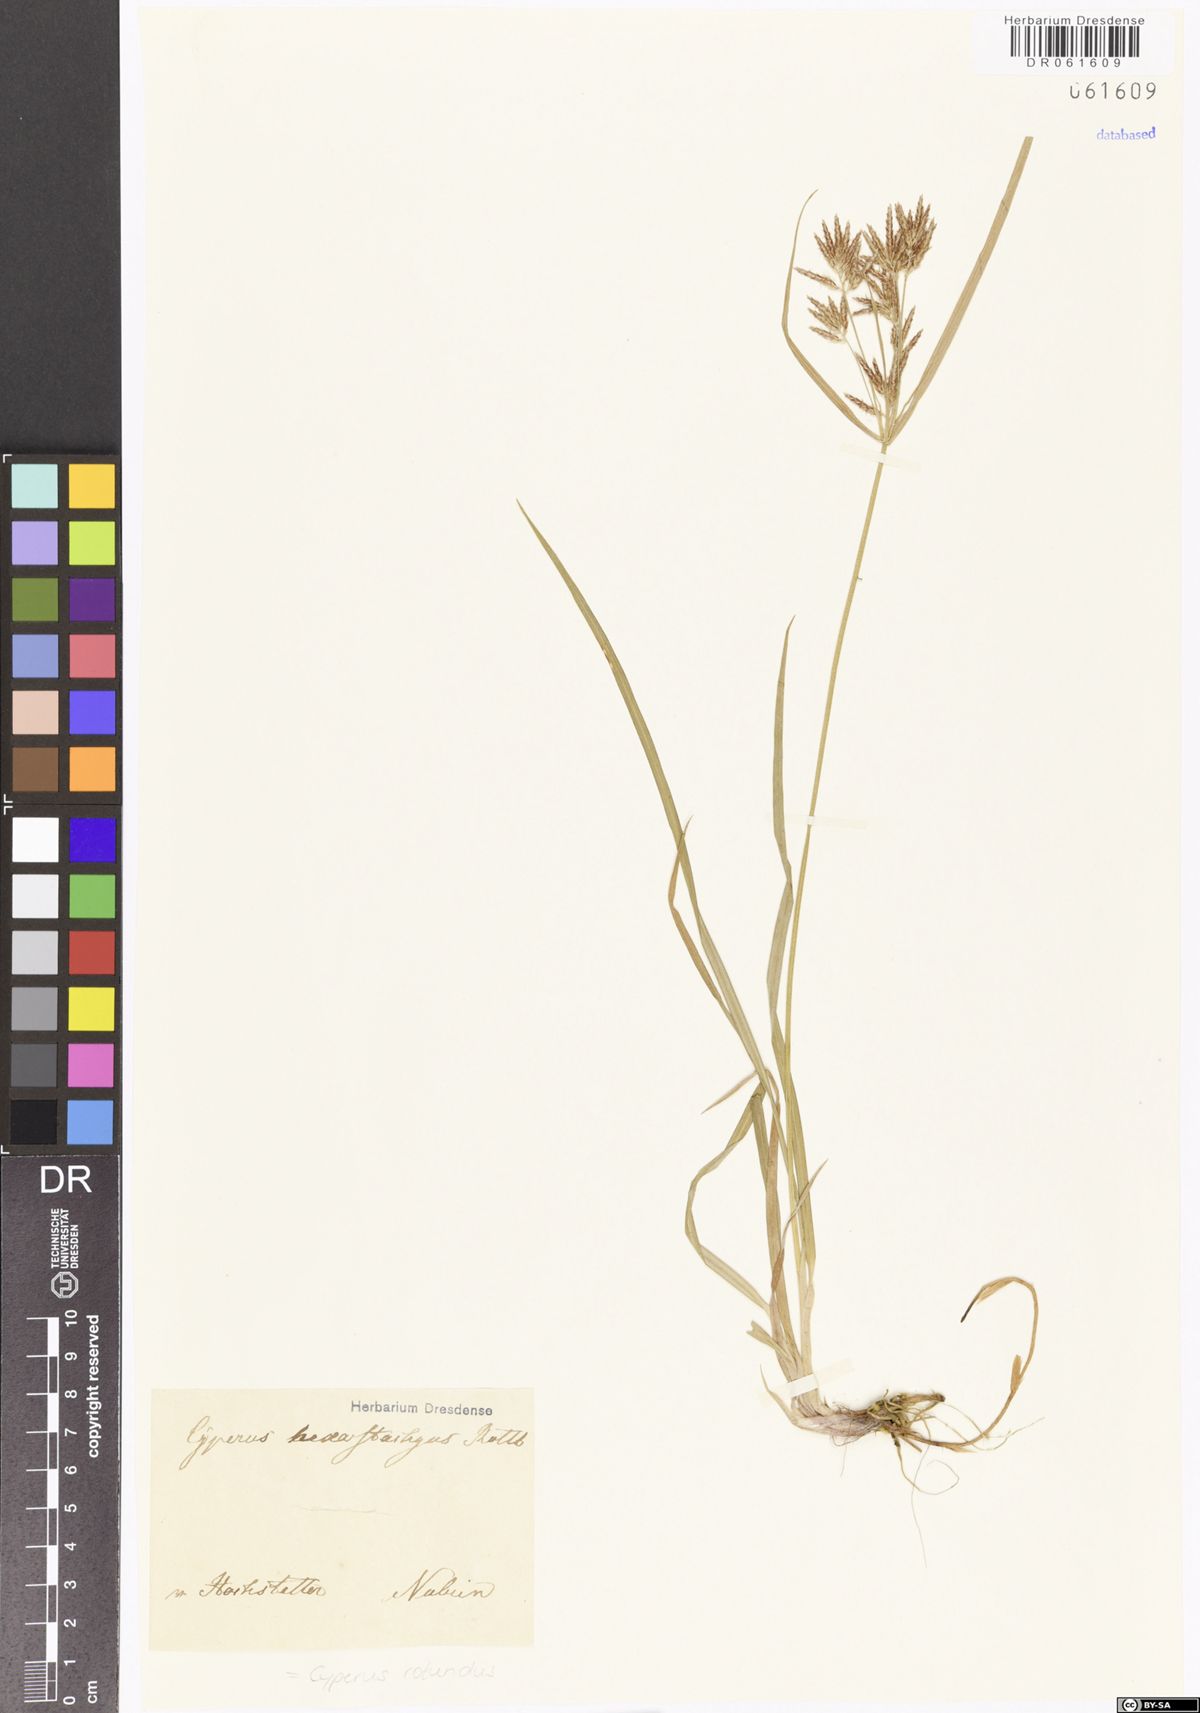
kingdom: Plantae
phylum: Tracheophyta
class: Liliopsida
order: Poales
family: Cyperaceae
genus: Cyperus
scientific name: Cyperus rotundus
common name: Nutgrass
